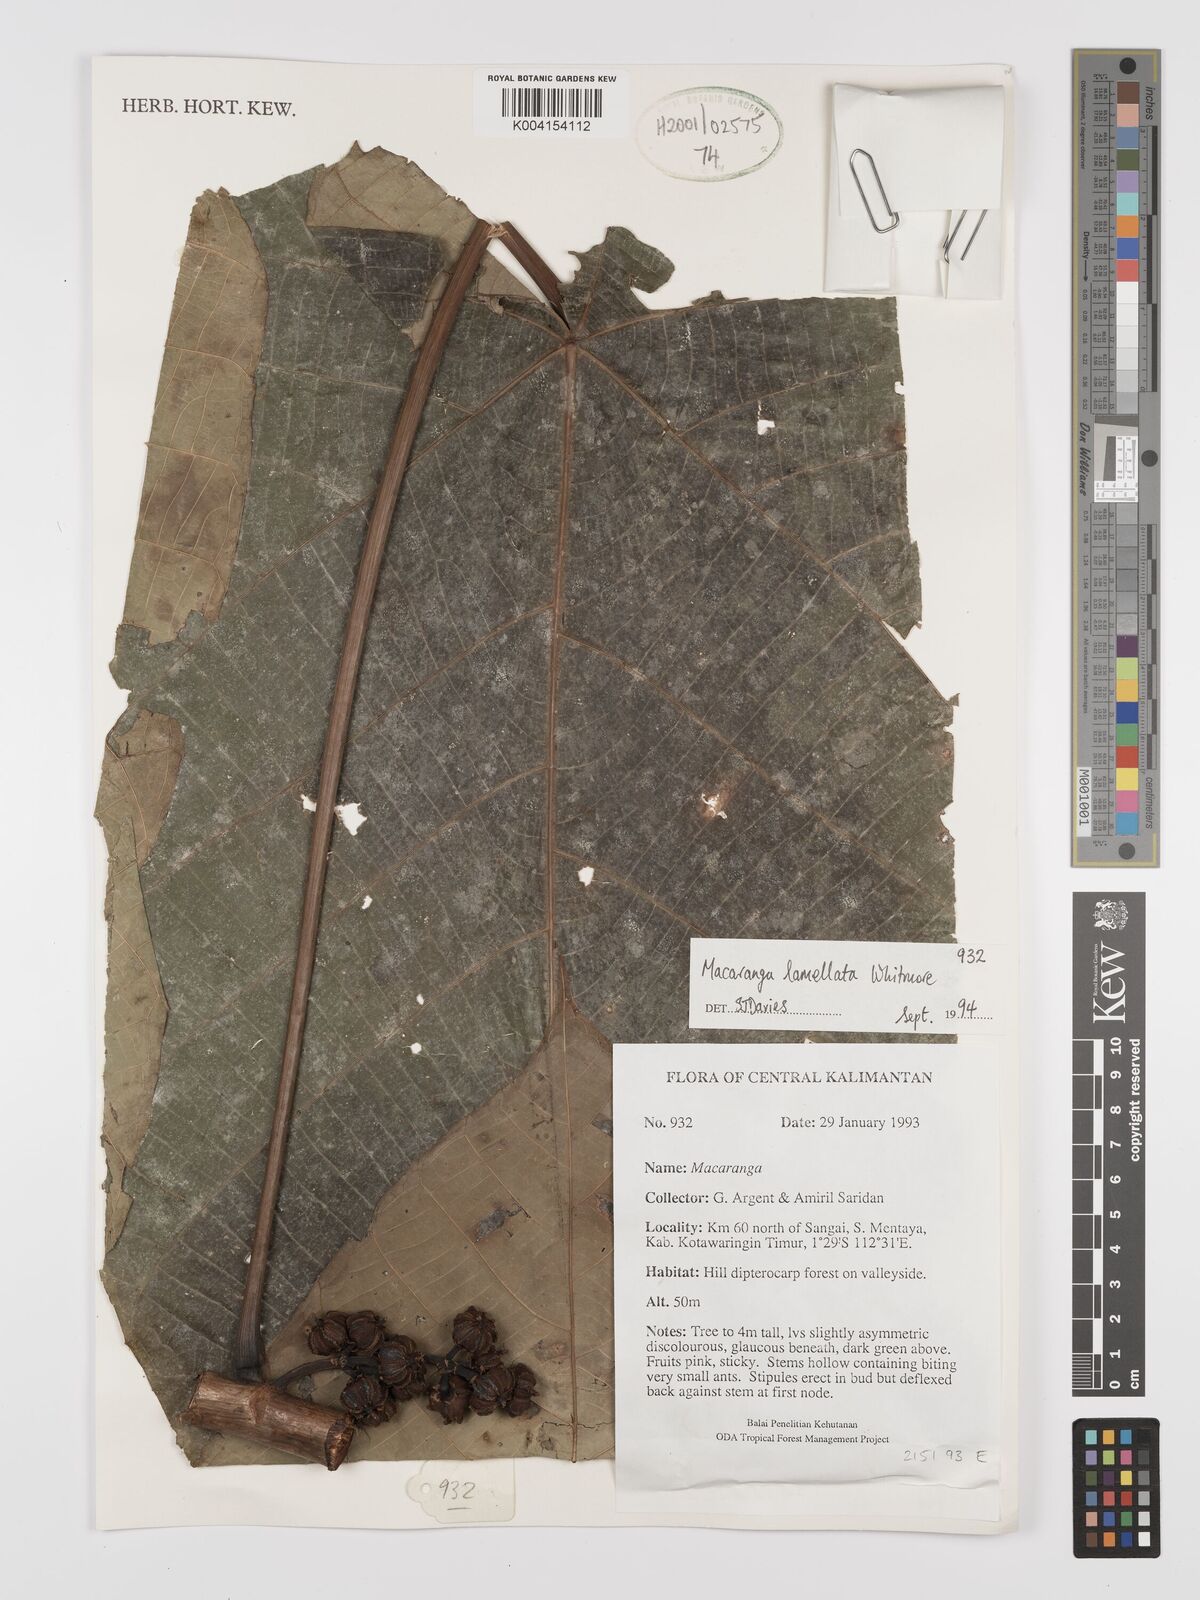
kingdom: Plantae
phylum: Tracheophyta
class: Magnoliopsida
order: Malpighiales
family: Euphorbiaceae
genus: Macaranga
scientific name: Macaranga lamellata
